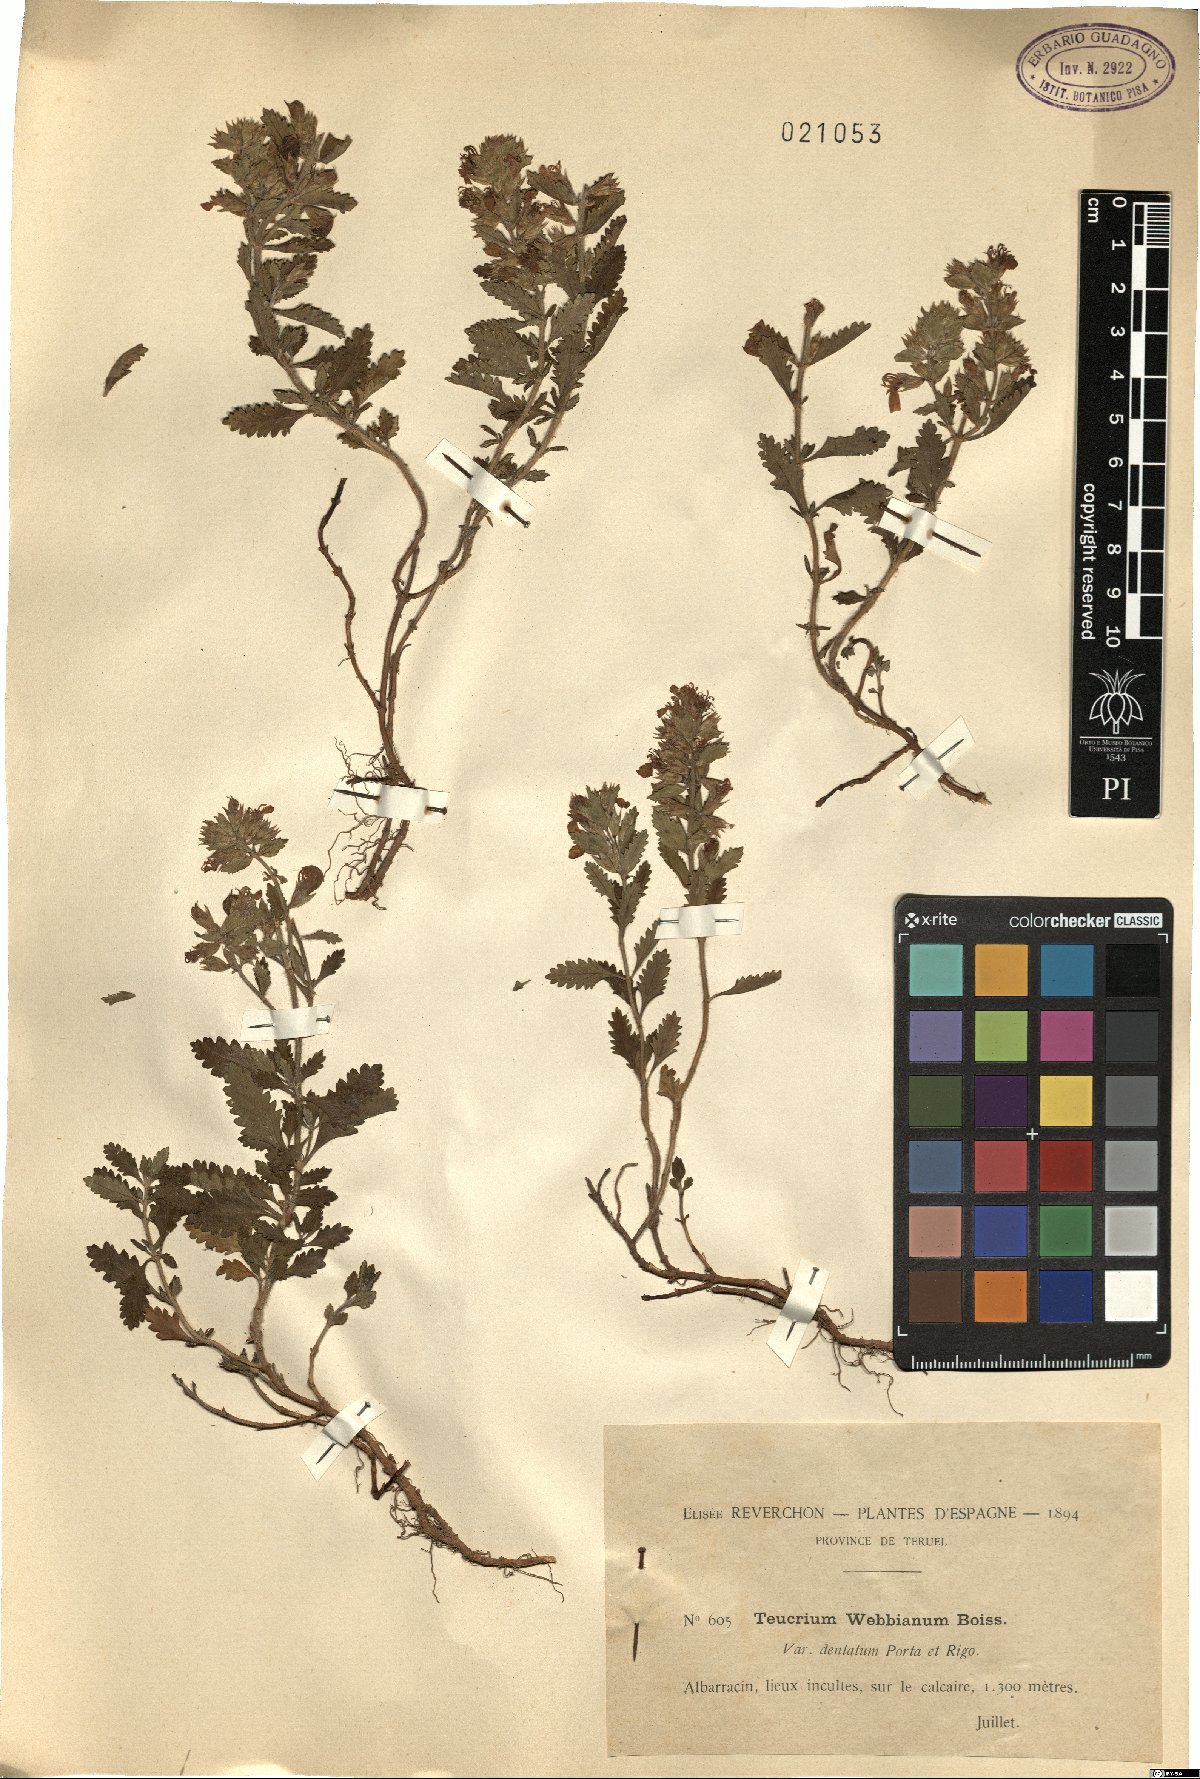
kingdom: Plantae
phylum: Tracheophyta
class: Magnoliopsida
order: Lamiales
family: Lamiaceae
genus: Teucrium
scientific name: Teucrium webbianum
